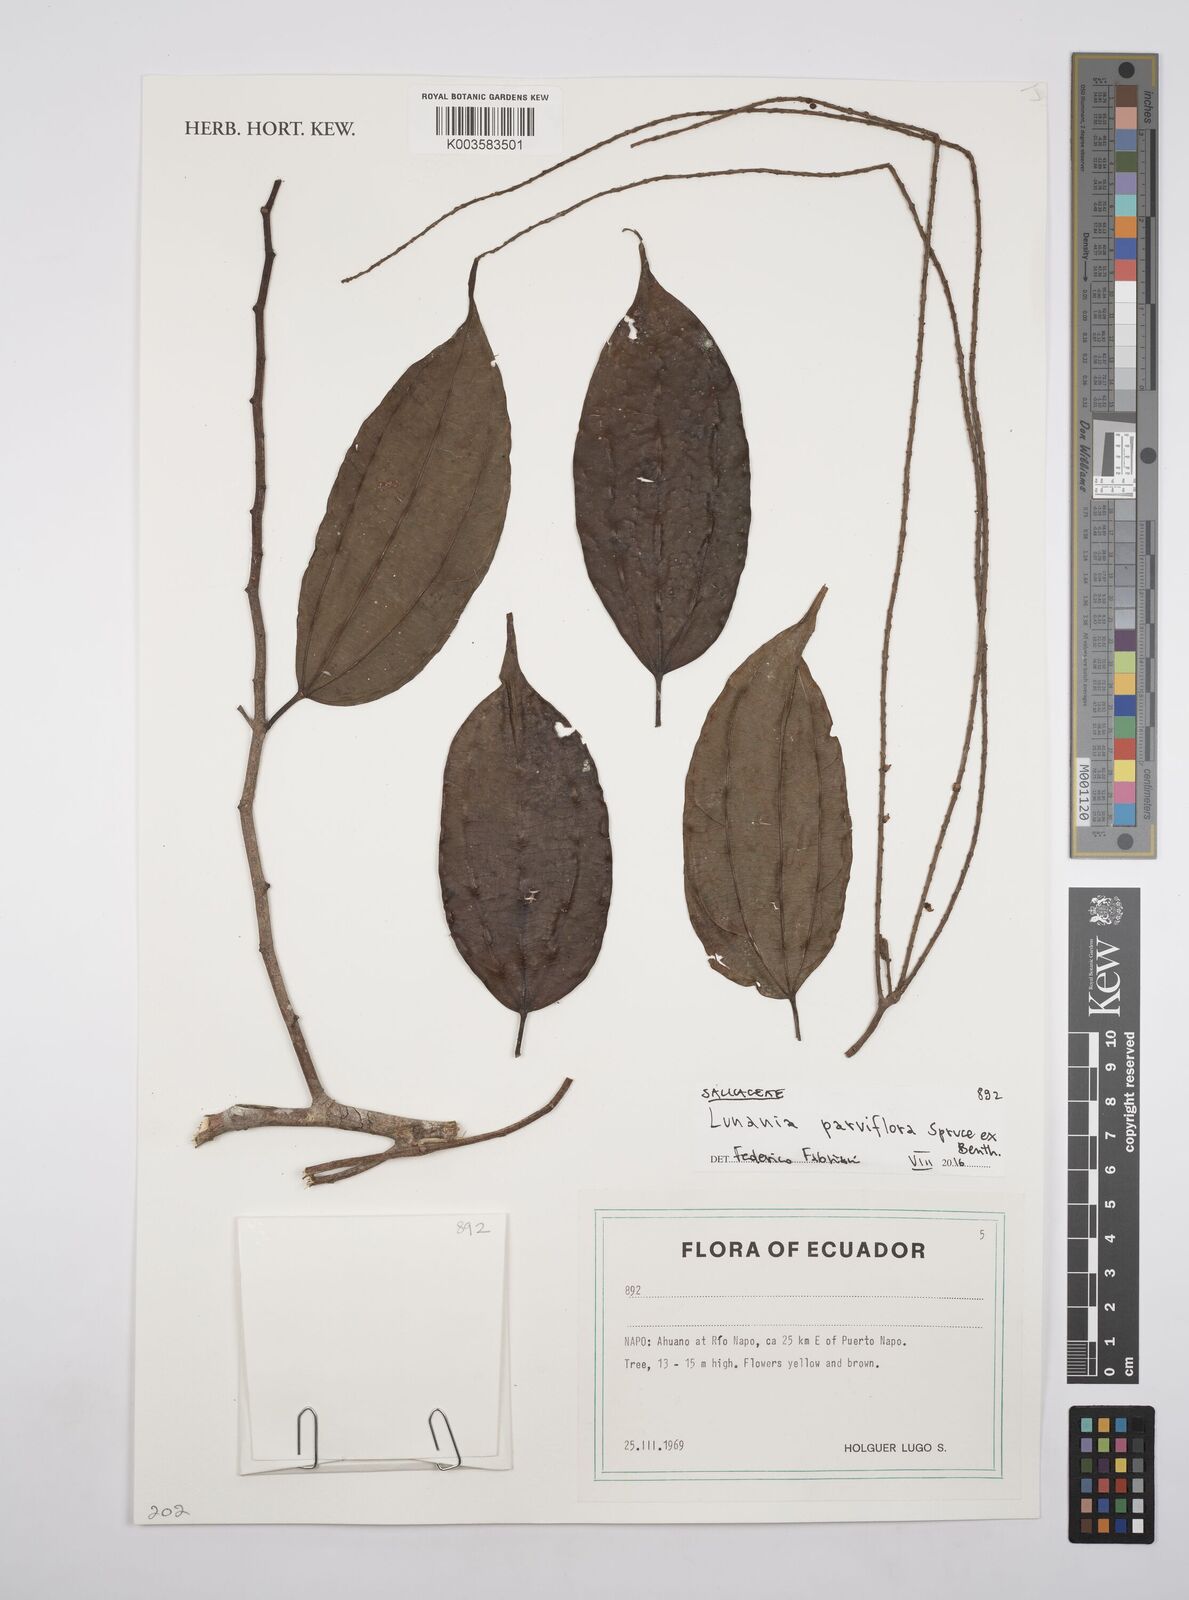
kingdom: Plantae
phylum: Tracheophyta
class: Magnoliopsida
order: Malpighiales
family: Salicaceae
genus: Lunania
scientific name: Lunania parviflora
